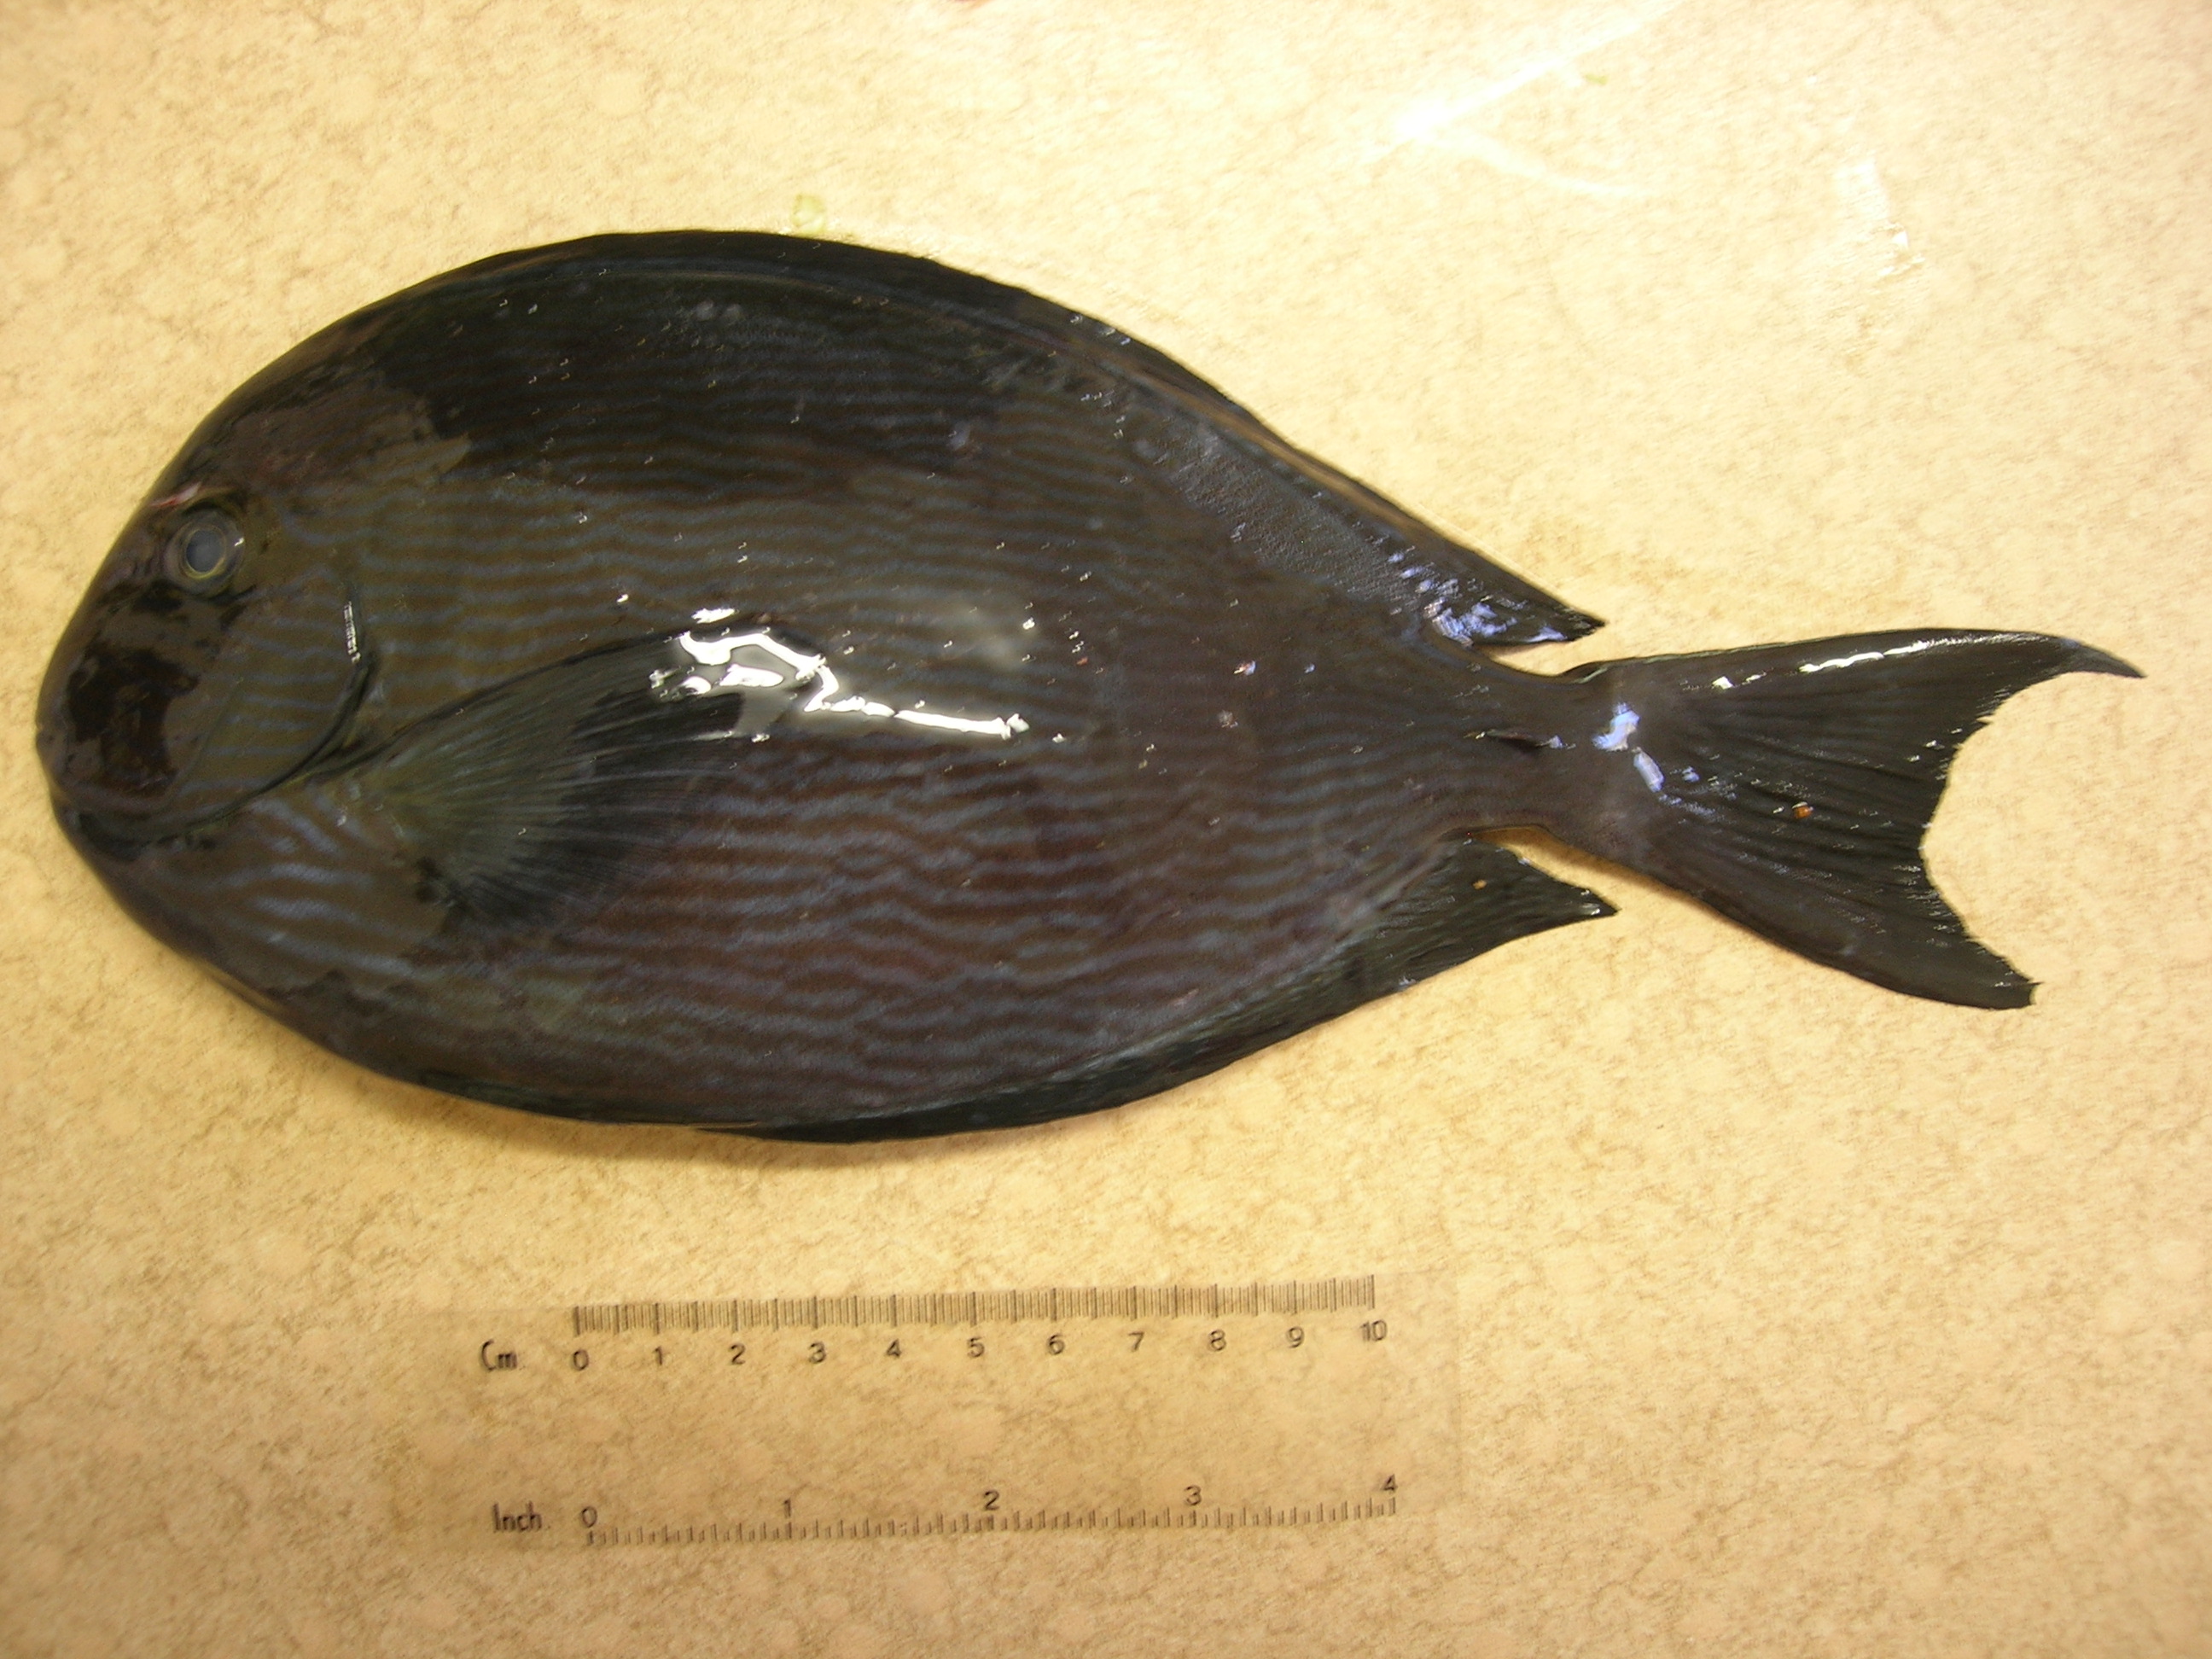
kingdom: Animalia
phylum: Chordata
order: Perciformes
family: Acanthuridae
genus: Acanthurus
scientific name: Acanthurus mata
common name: Bleeker's surgeonfish
